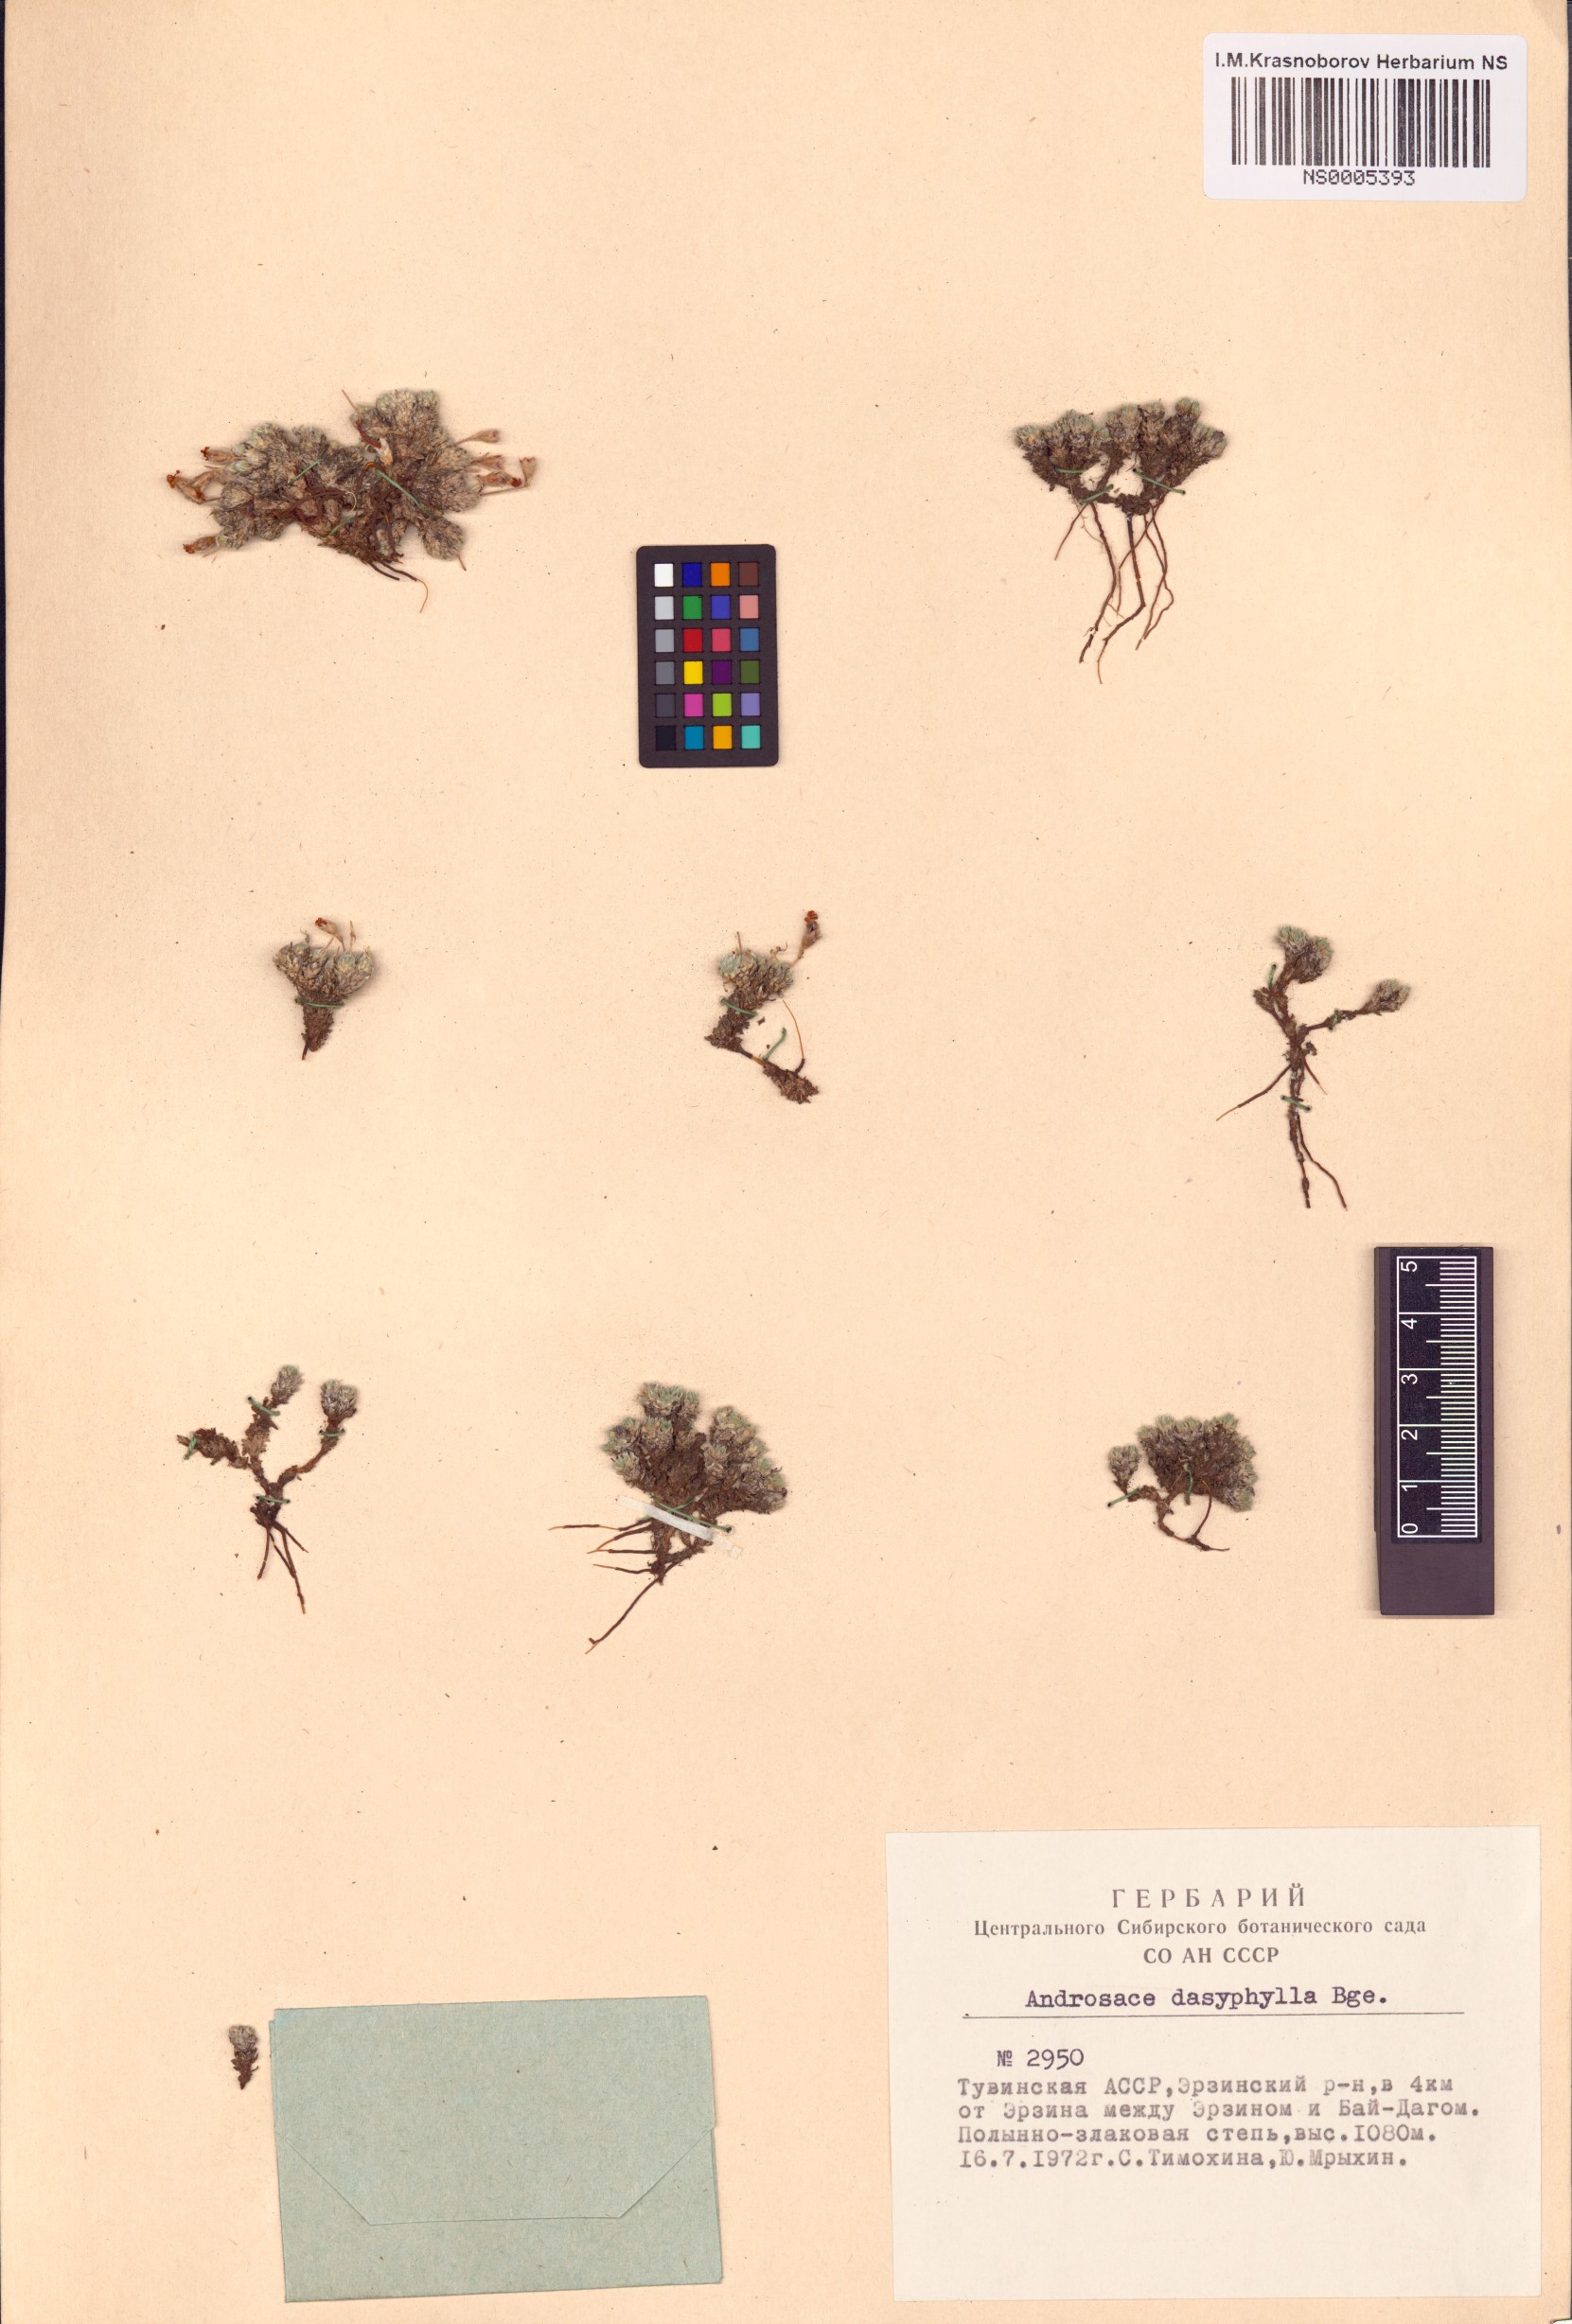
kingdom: Plantae
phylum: Tracheophyta
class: Magnoliopsida
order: Ericales
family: Primulaceae
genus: Androsace
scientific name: Androsace dasyphylla
